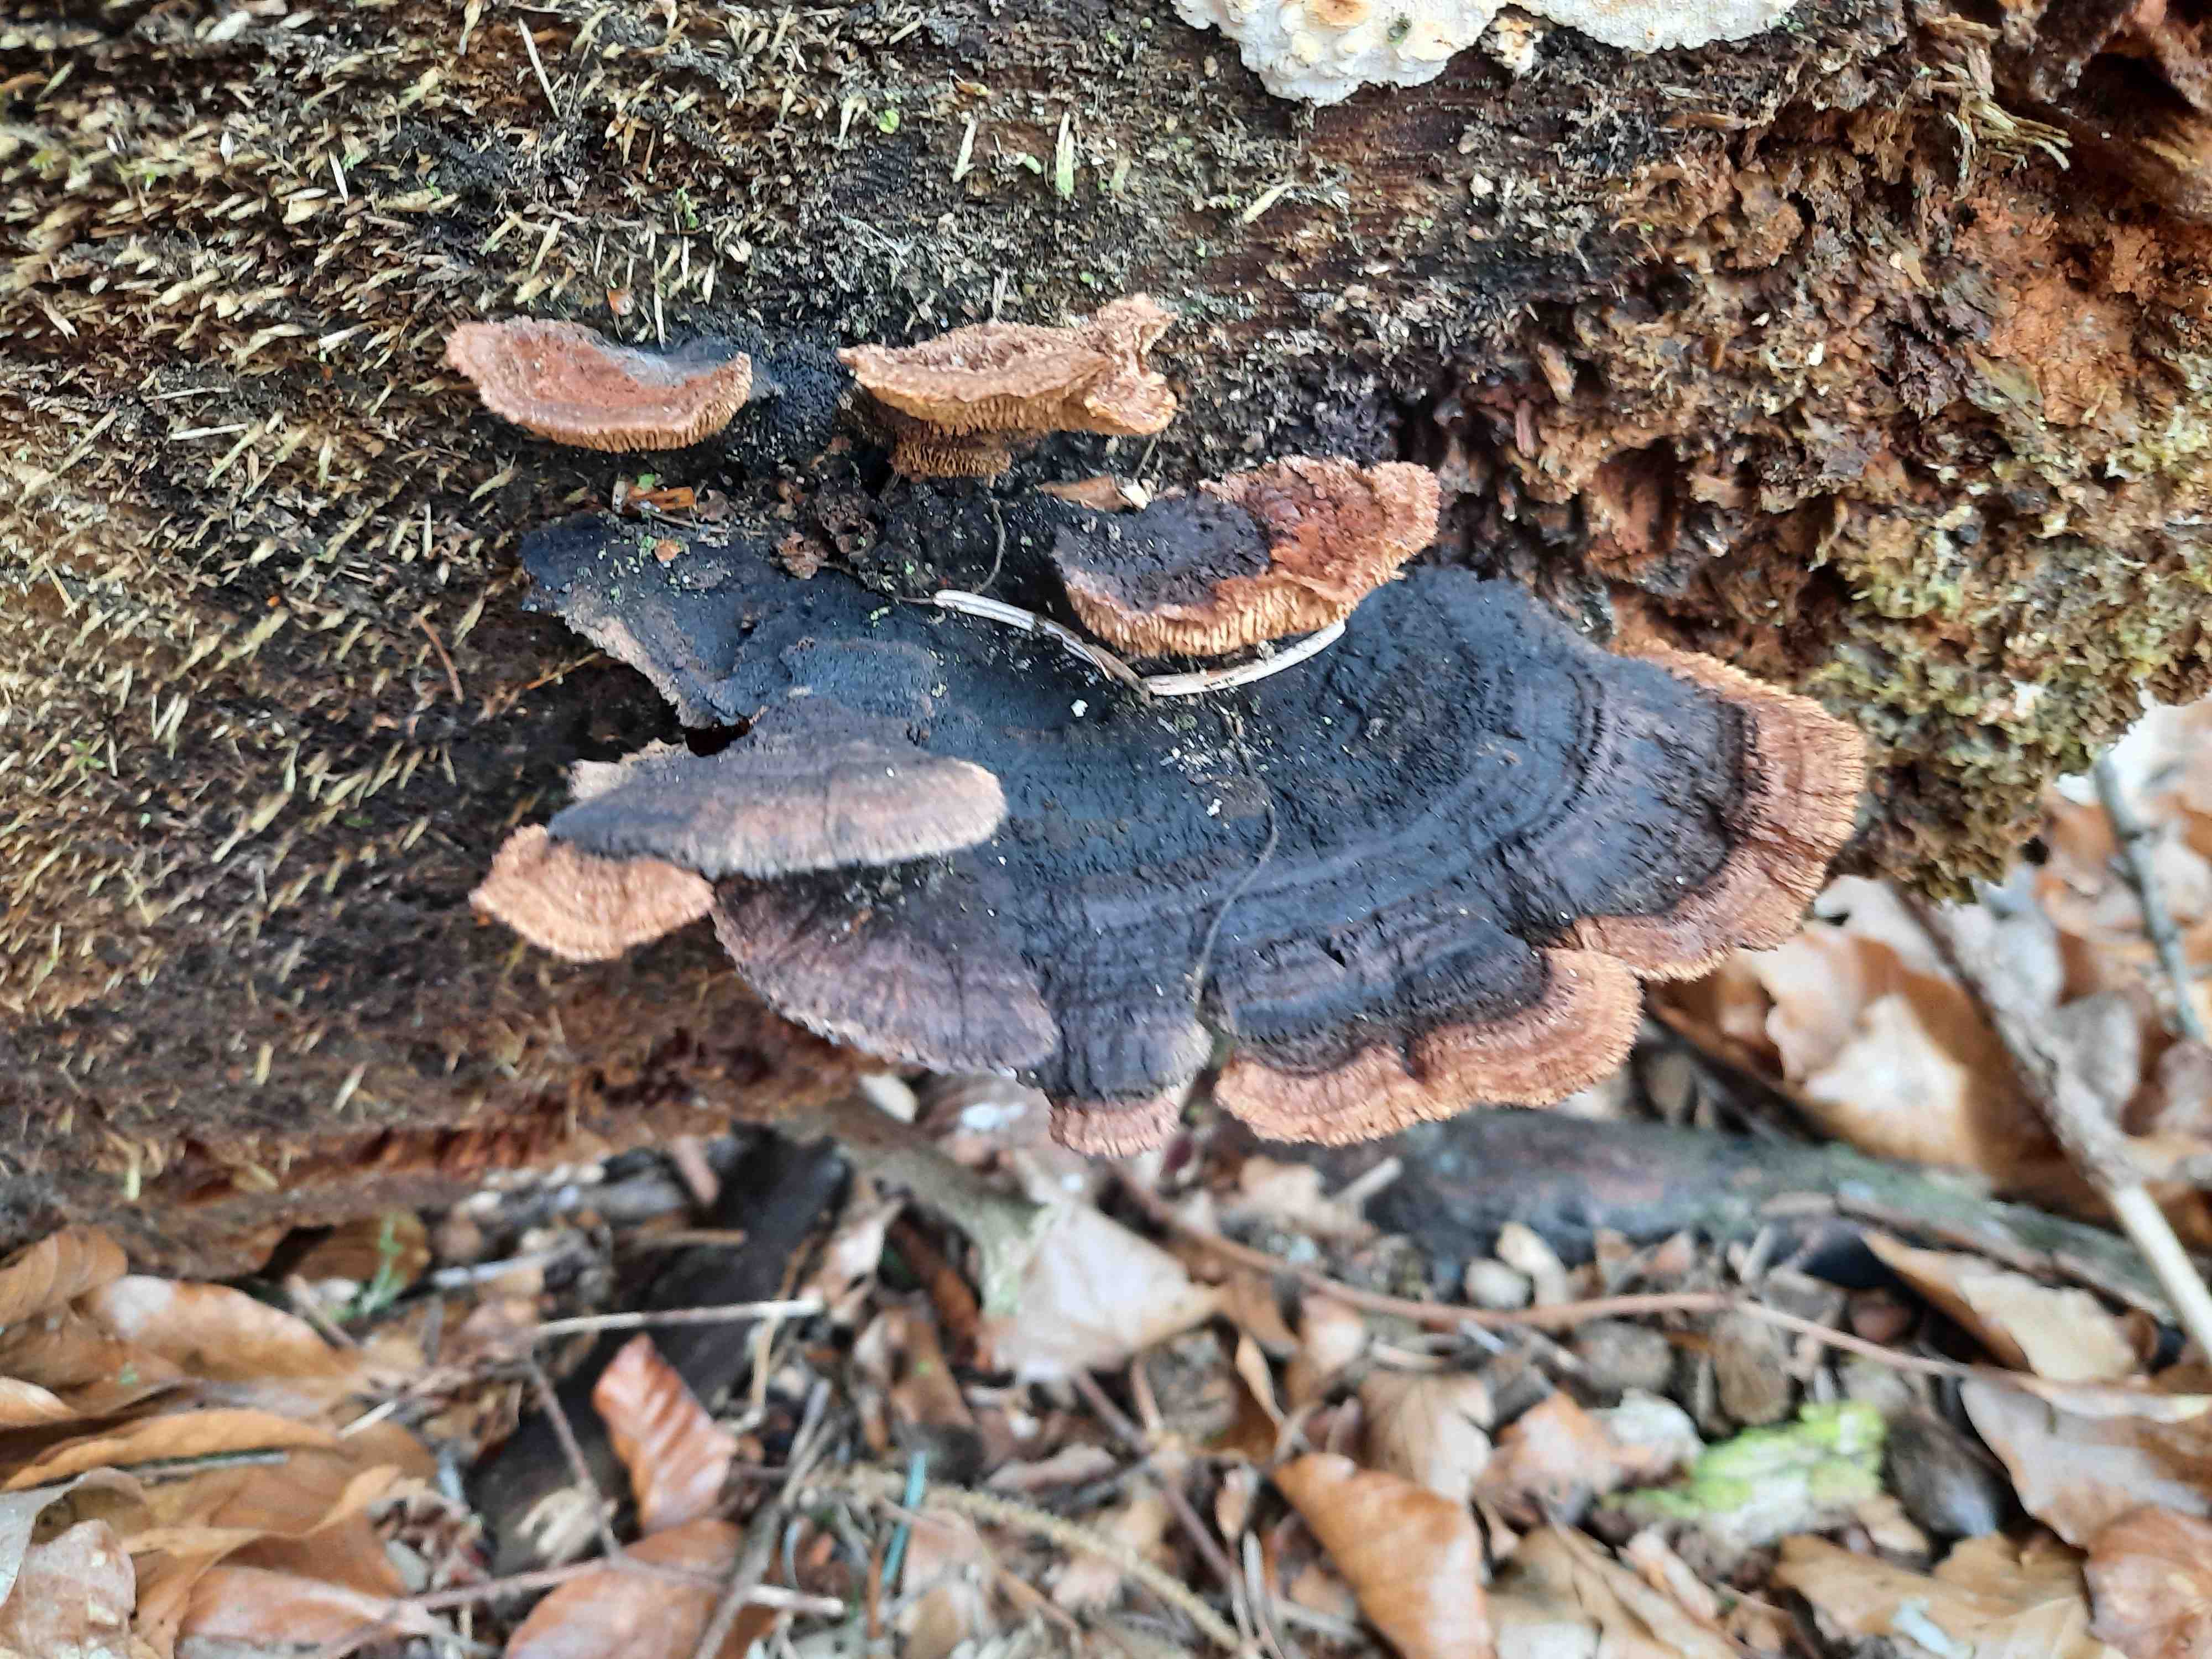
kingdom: Fungi
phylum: Basidiomycota
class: Agaricomycetes
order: Gloeophyllales
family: Gloeophyllaceae
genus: Gloeophyllum
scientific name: Gloeophyllum sepiarium
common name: fyrre-korkhat
